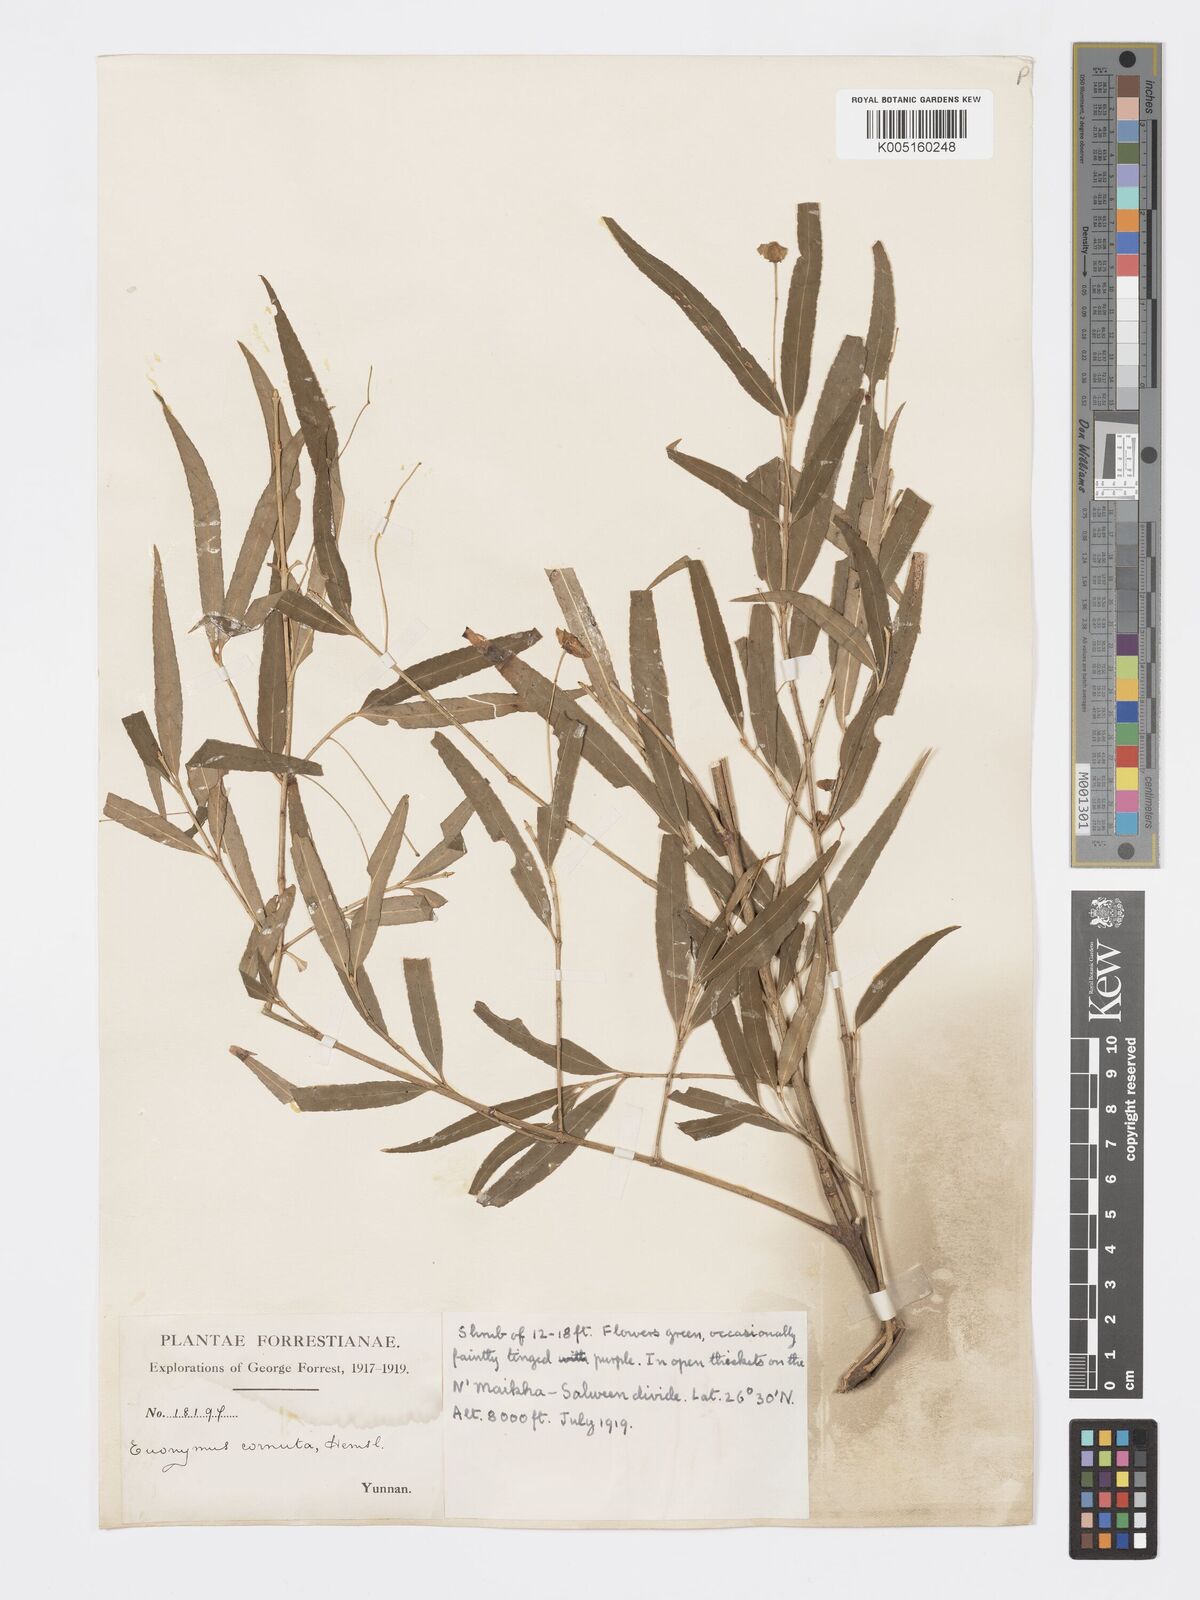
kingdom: Plantae
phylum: Tracheophyta
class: Magnoliopsida
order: Celastrales
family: Celastraceae
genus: Euonymus
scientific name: Euonymus cornutus
